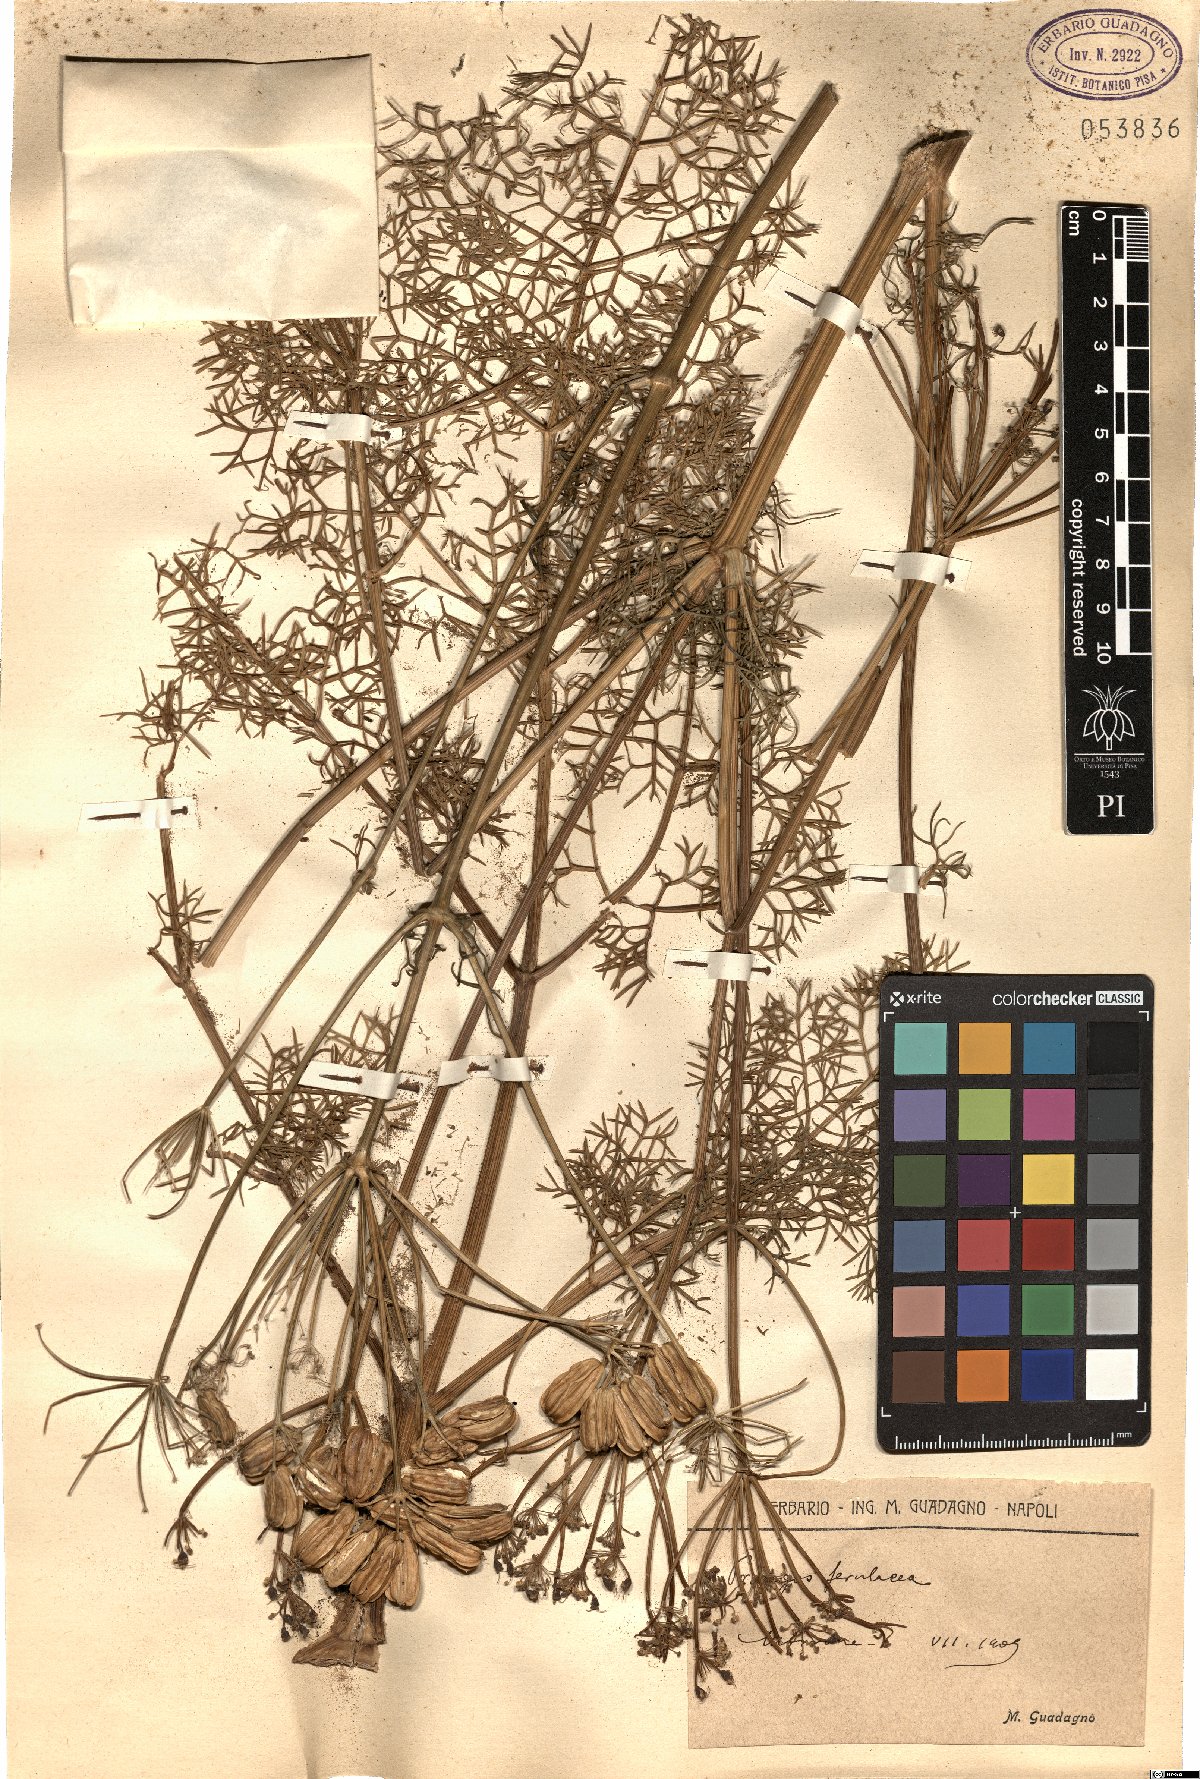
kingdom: Plantae
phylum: Tracheophyta
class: Magnoliopsida
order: Apiales
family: Apiaceae
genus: Prangos
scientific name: Prangos ferulacea
